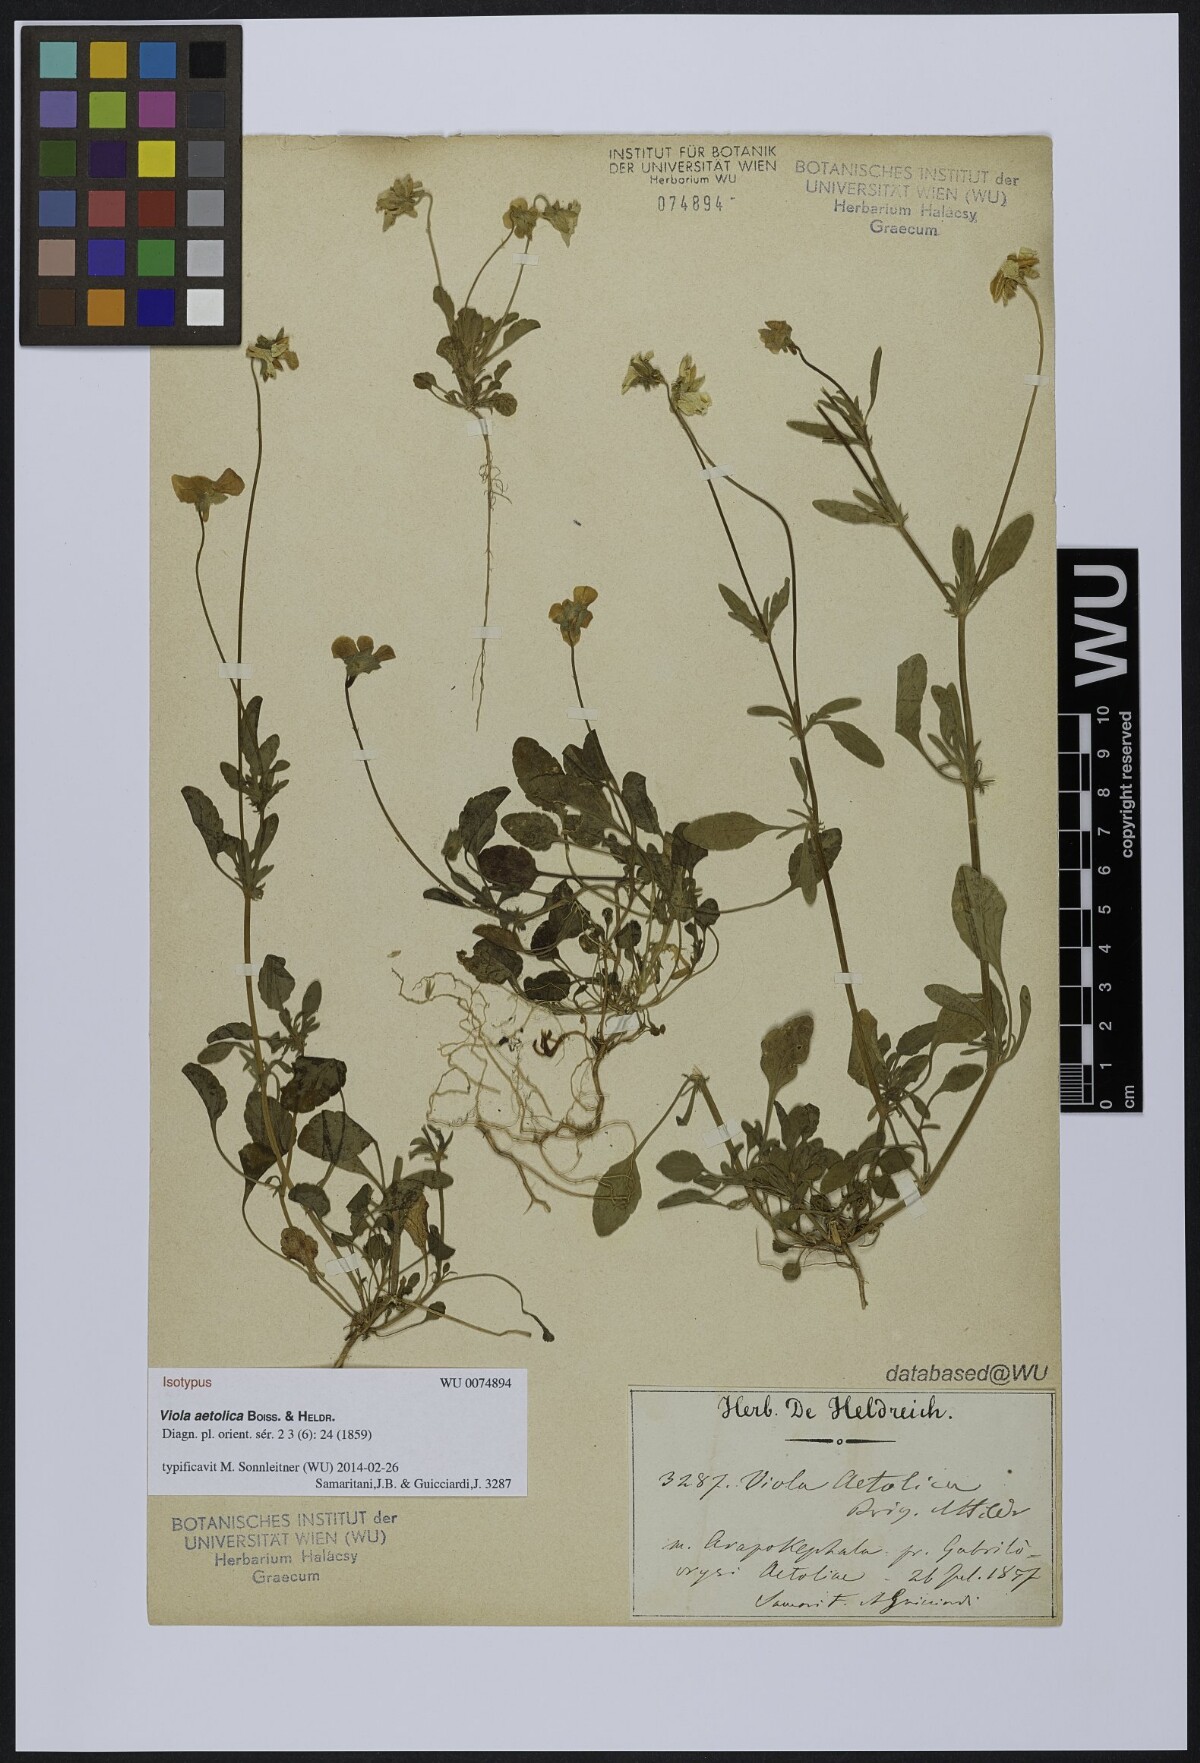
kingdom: Plantae
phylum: Tracheophyta
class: Magnoliopsida
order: Malpighiales
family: Violaceae
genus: Viola
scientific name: Viola aetolica
